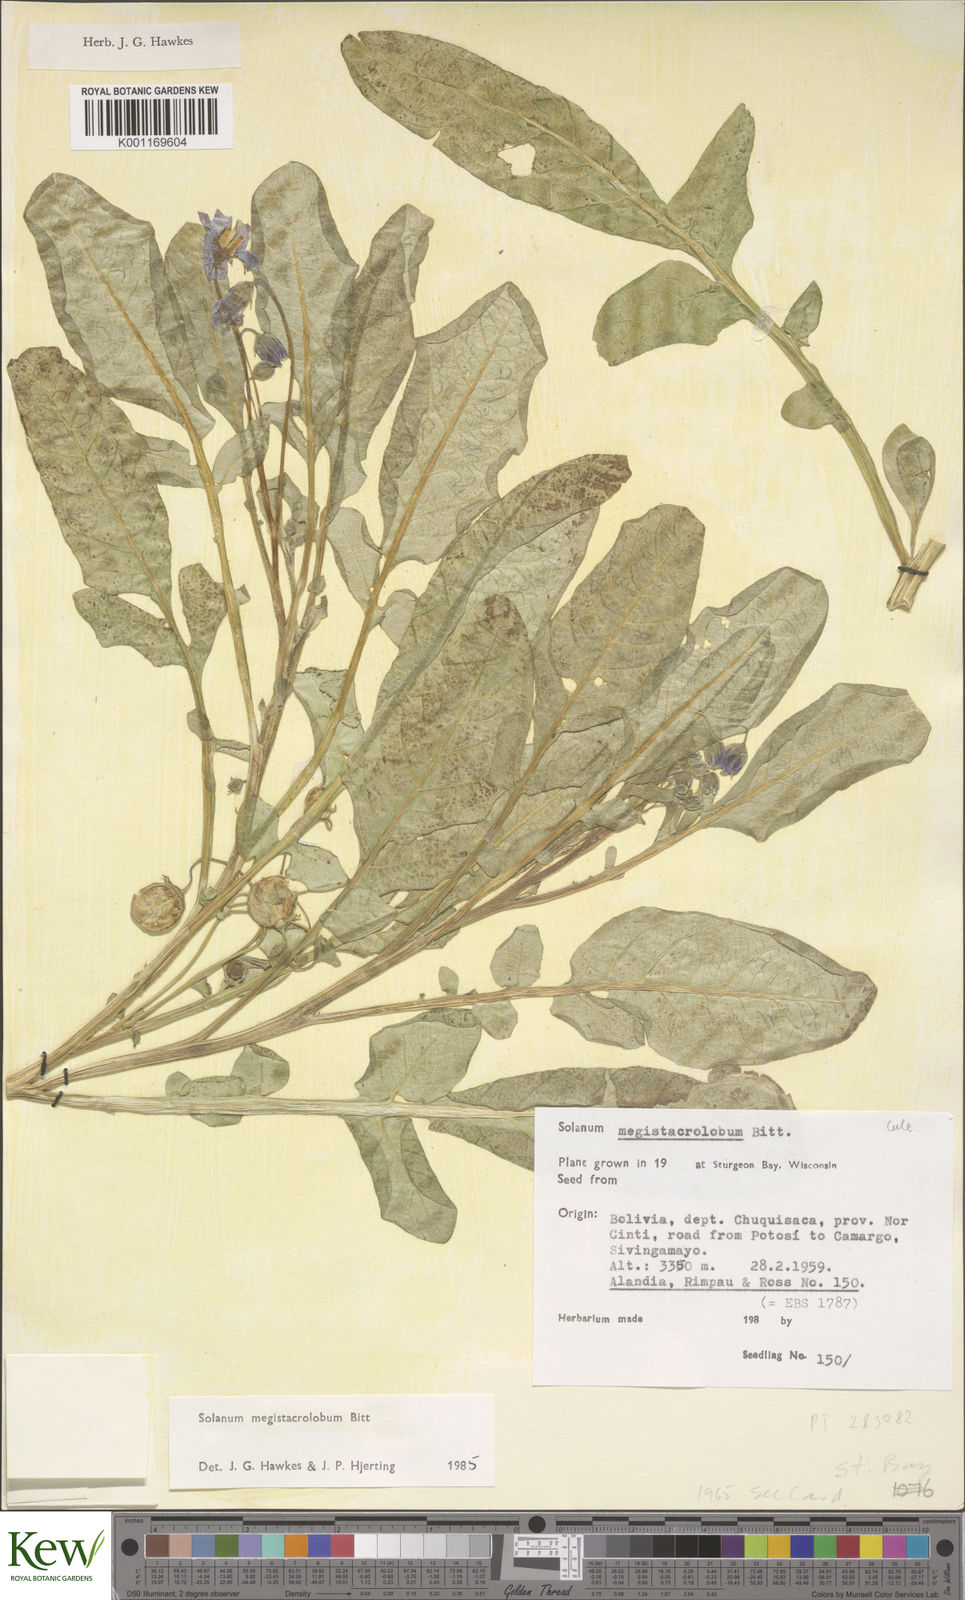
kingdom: Plantae
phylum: Tracheophyta
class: Magnoliopsida
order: Solanales
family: Solanaceae
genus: Solanum
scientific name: Solanum boliviense
